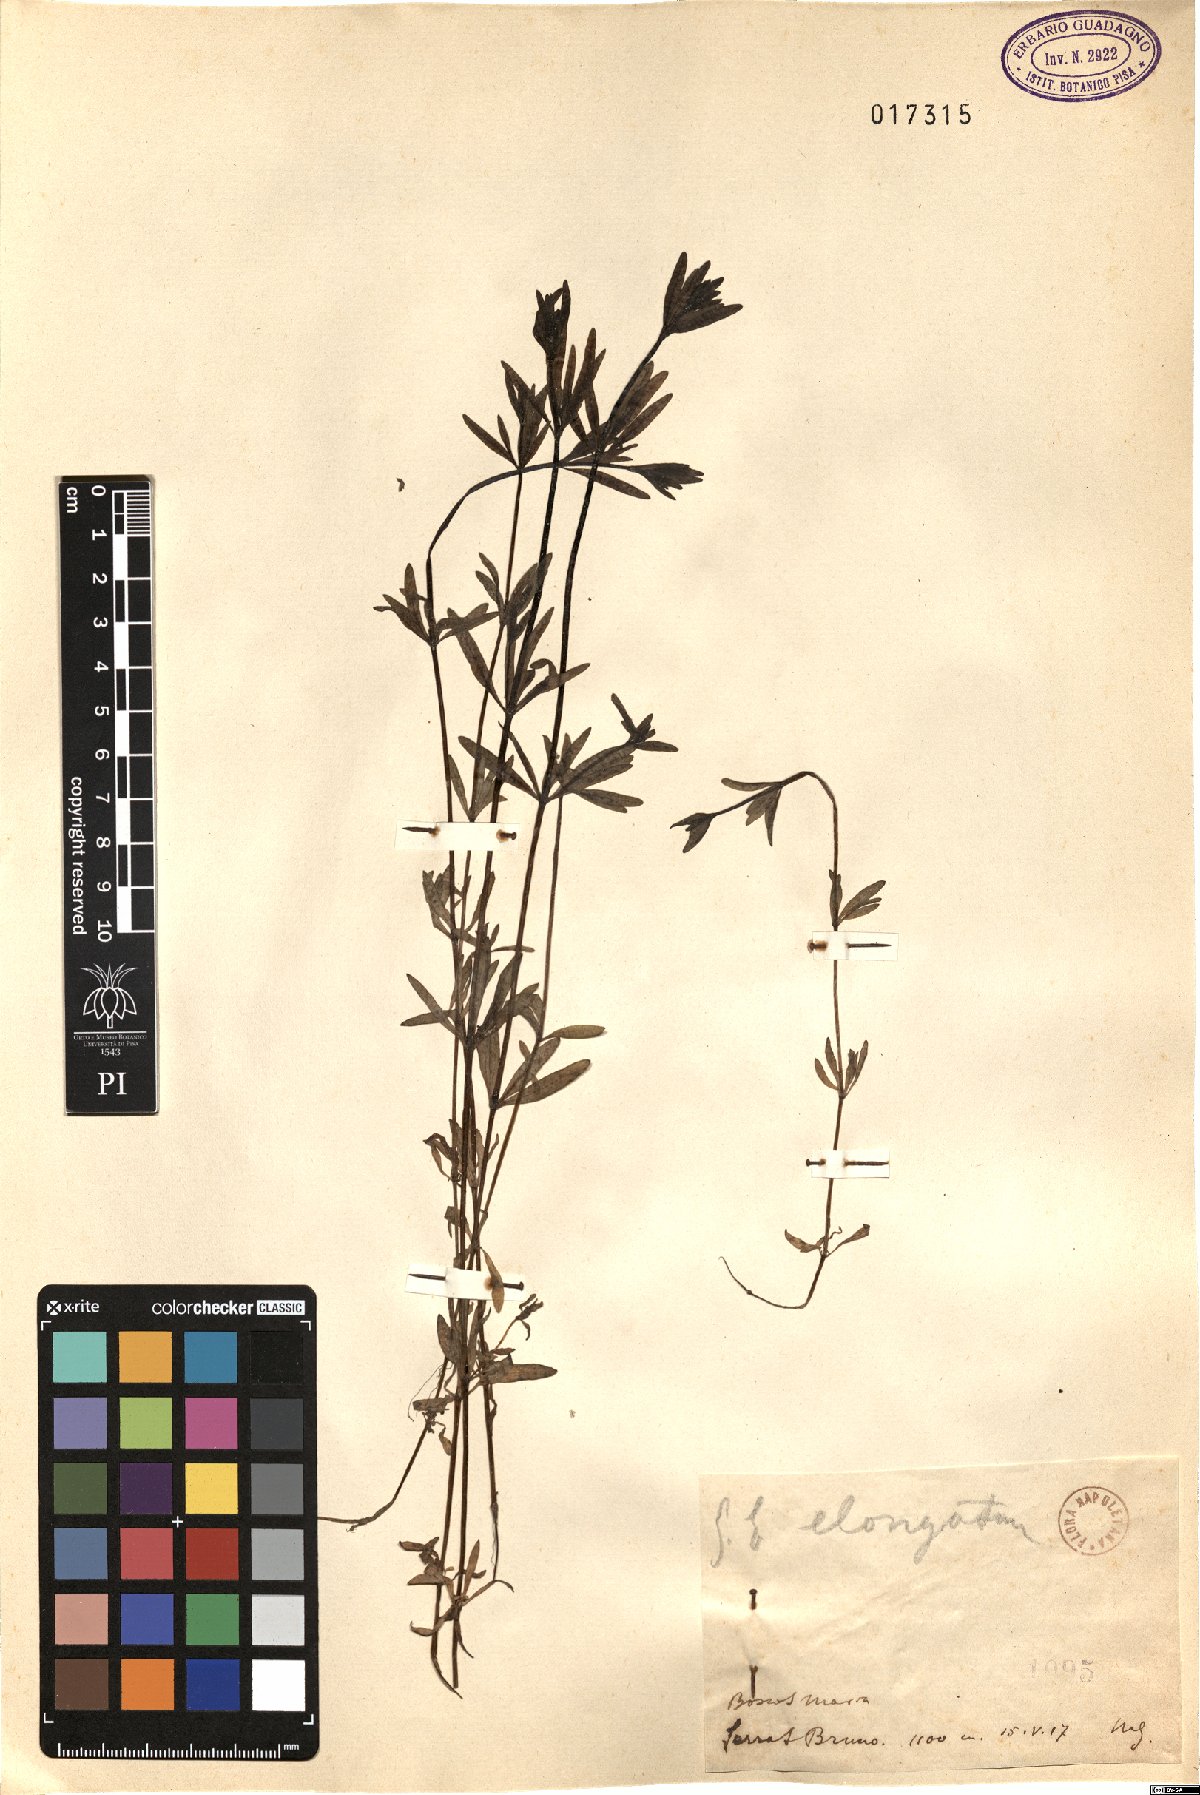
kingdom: Plantae
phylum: Tracheophyta
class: Magnoliopsida
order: Gentianales
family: Rubiaceae
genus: Galium
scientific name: Galium elongatum
